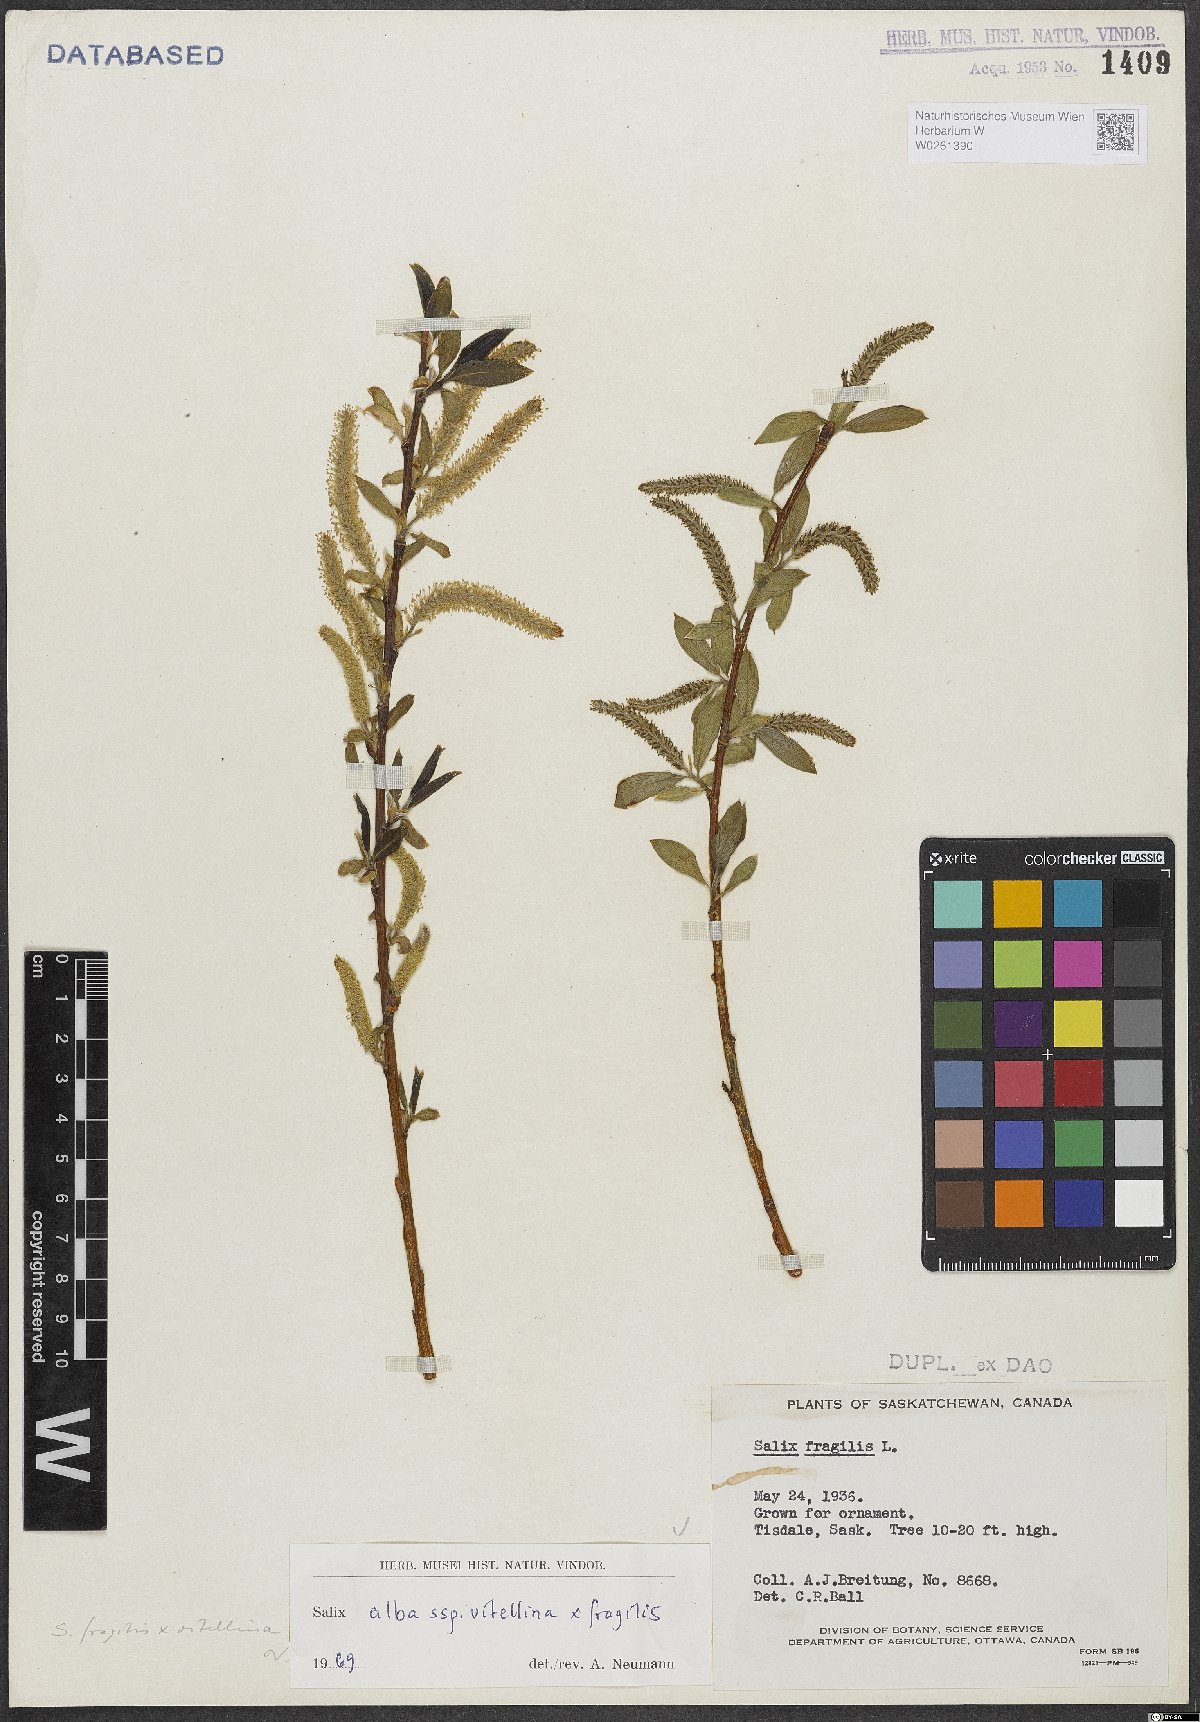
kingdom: Plantae
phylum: Tracheophyta
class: Magnoliopsida
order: Malpighiales
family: Salicaceae
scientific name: Salicaceae
